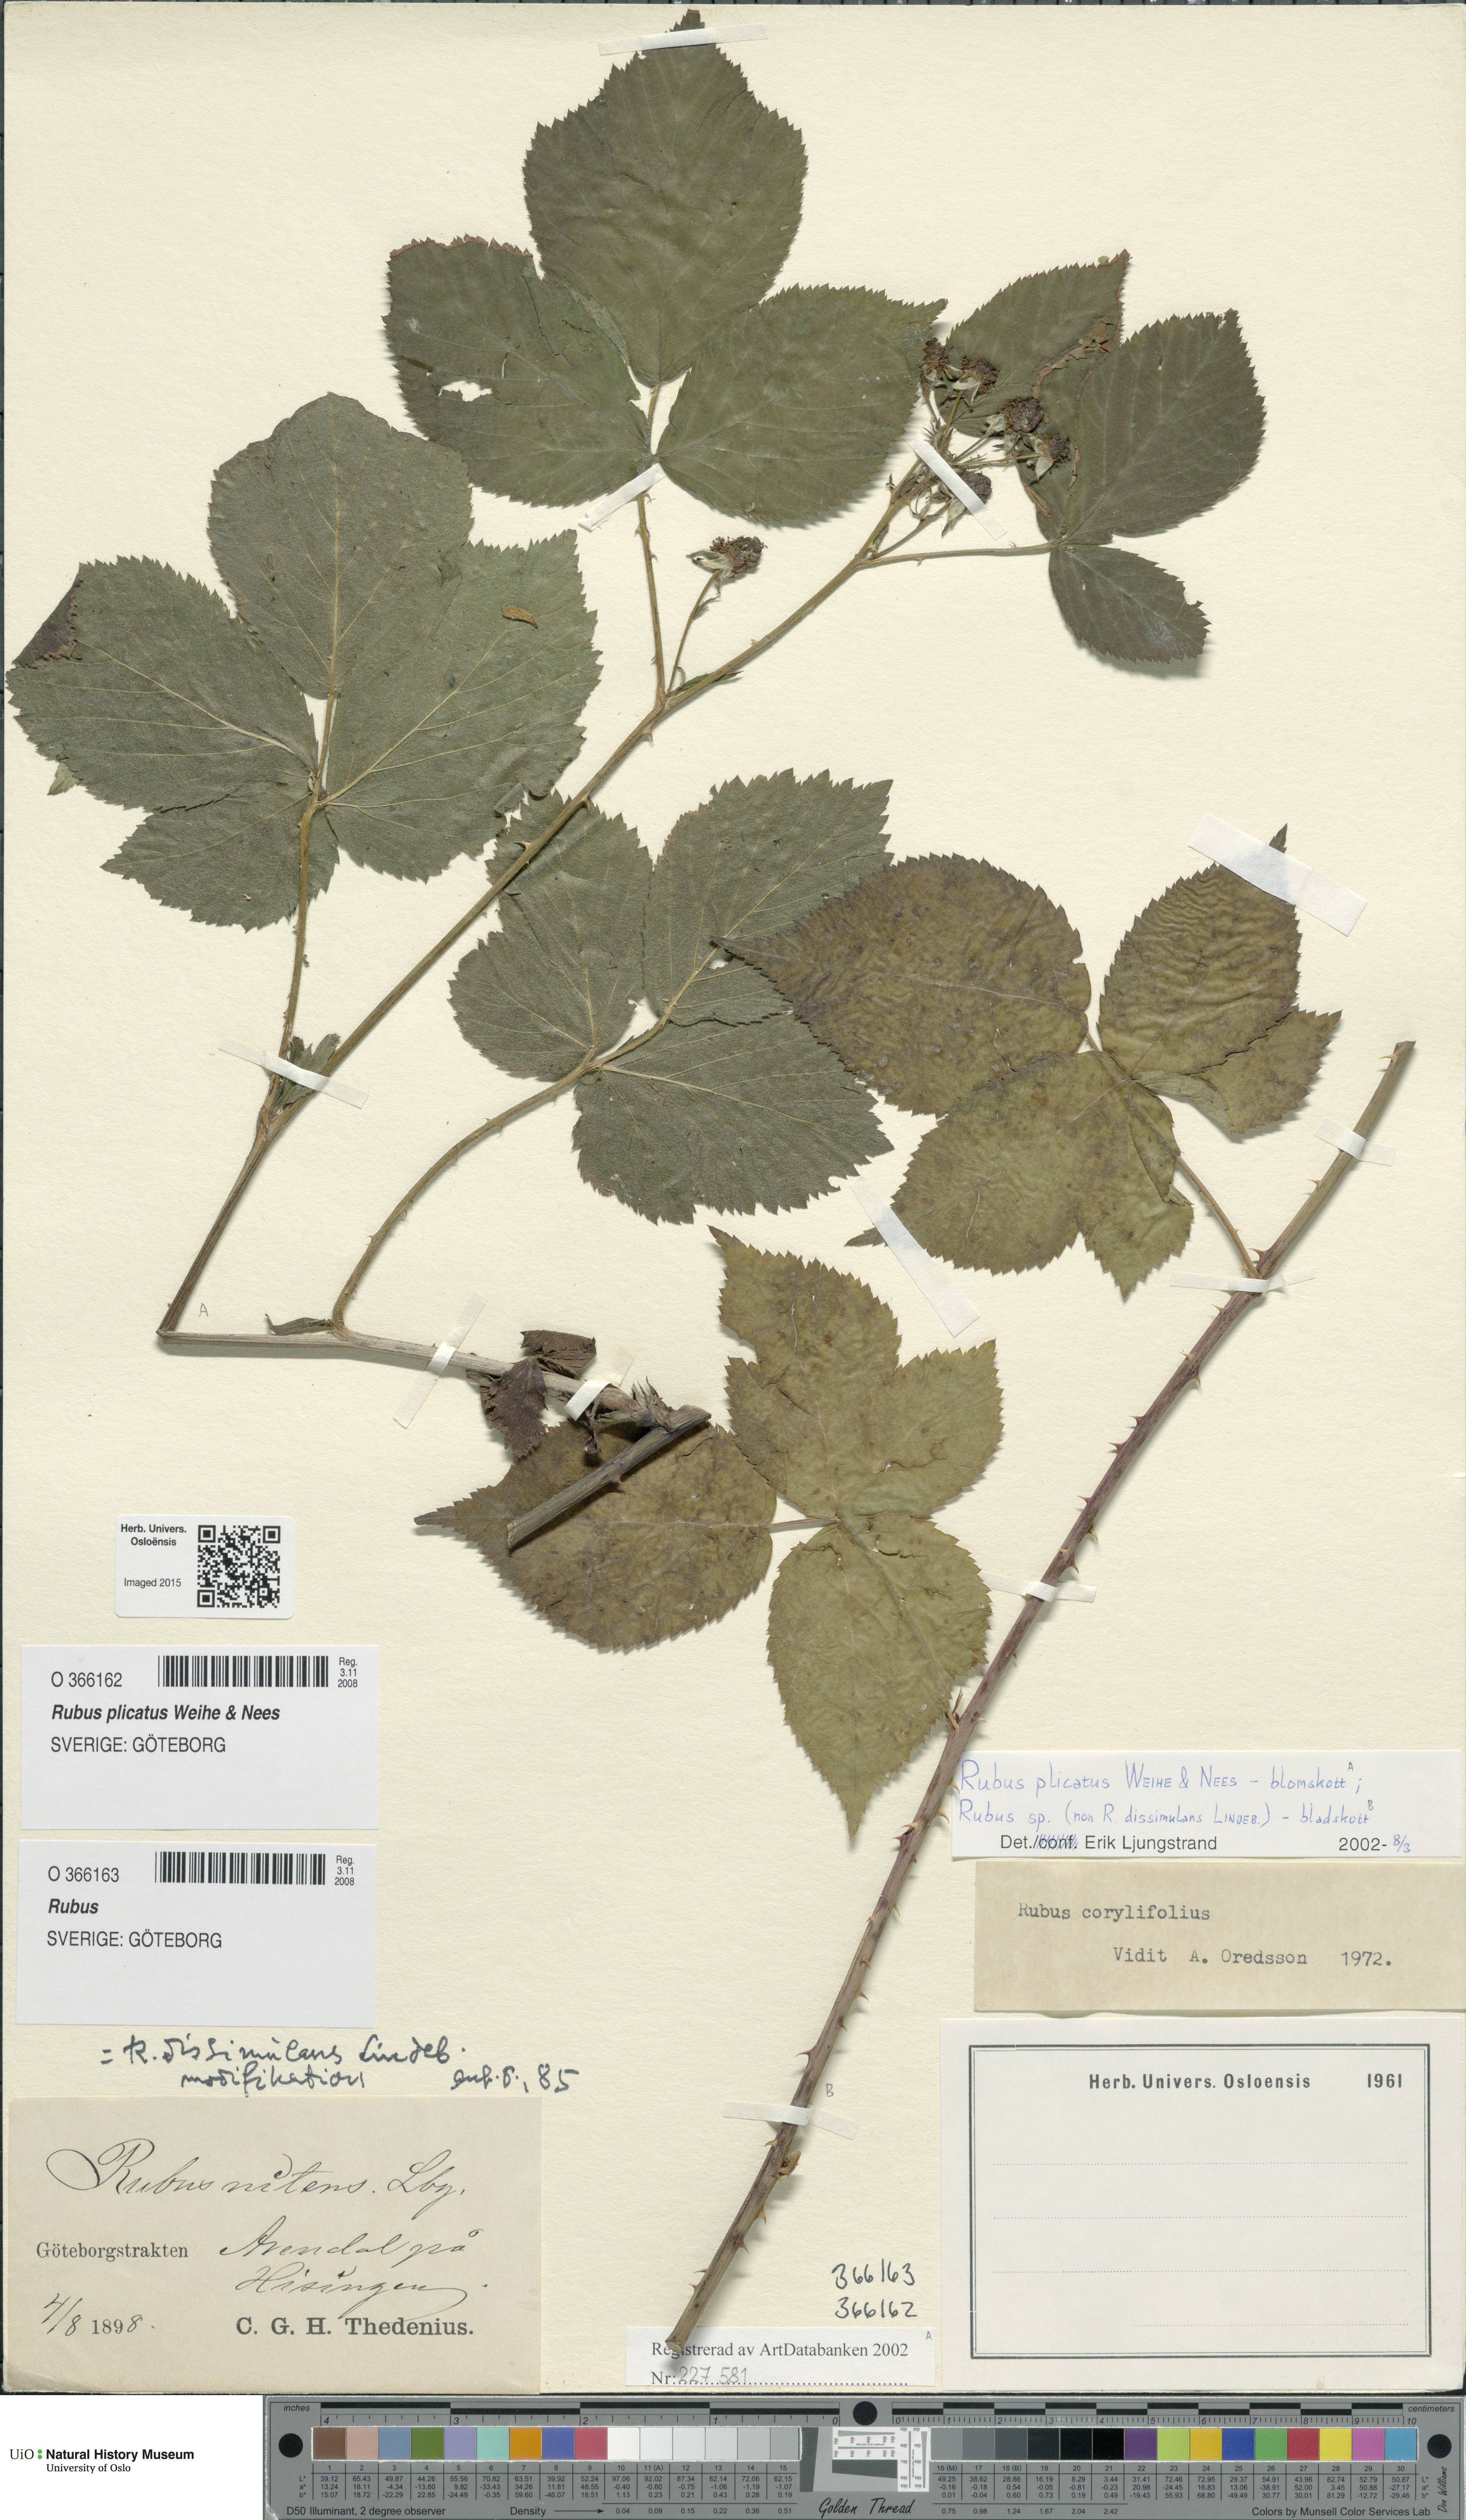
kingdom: Plantae
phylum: Tracheophyta
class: Magnoliopsida
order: Rosales
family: Rosaceae
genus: Rubus
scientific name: Rubus fruticosus
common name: Blackberry, bramble
